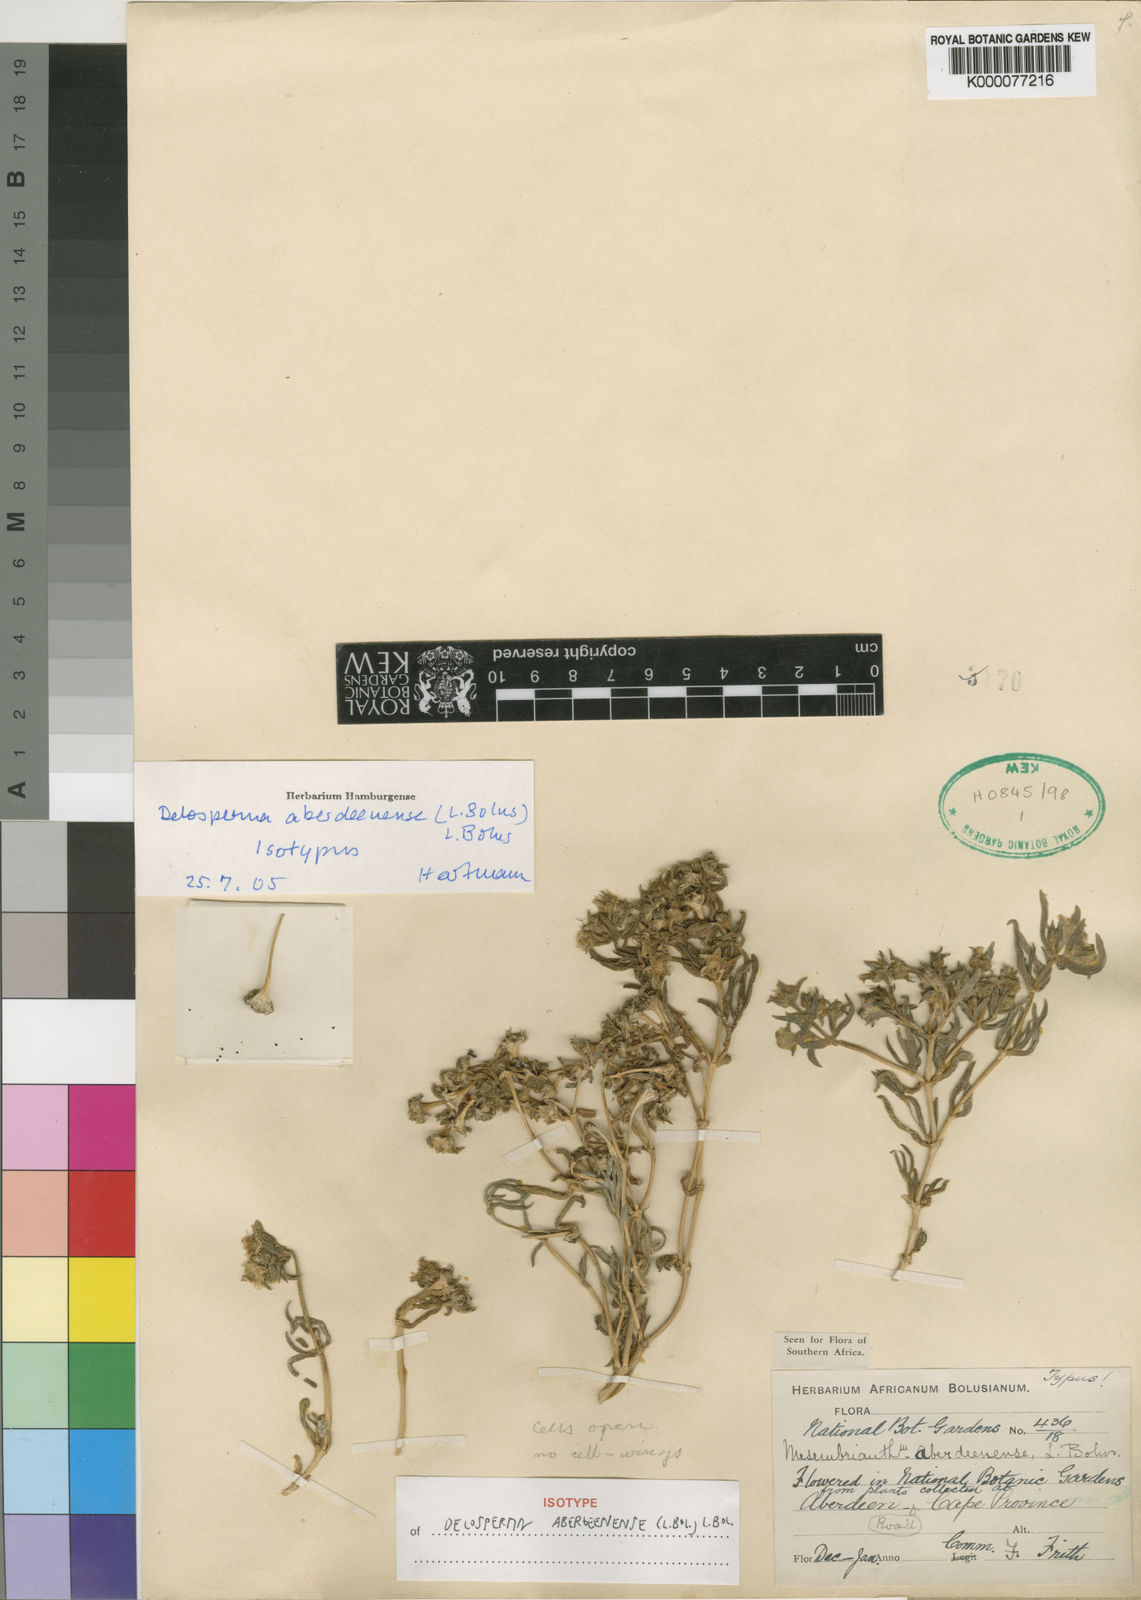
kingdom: Plantae
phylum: Tracheophyta
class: Magnoliopsida
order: Caryophyllales
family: Aizoaceae
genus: Delosperma
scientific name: Delosperma aberdeenense
